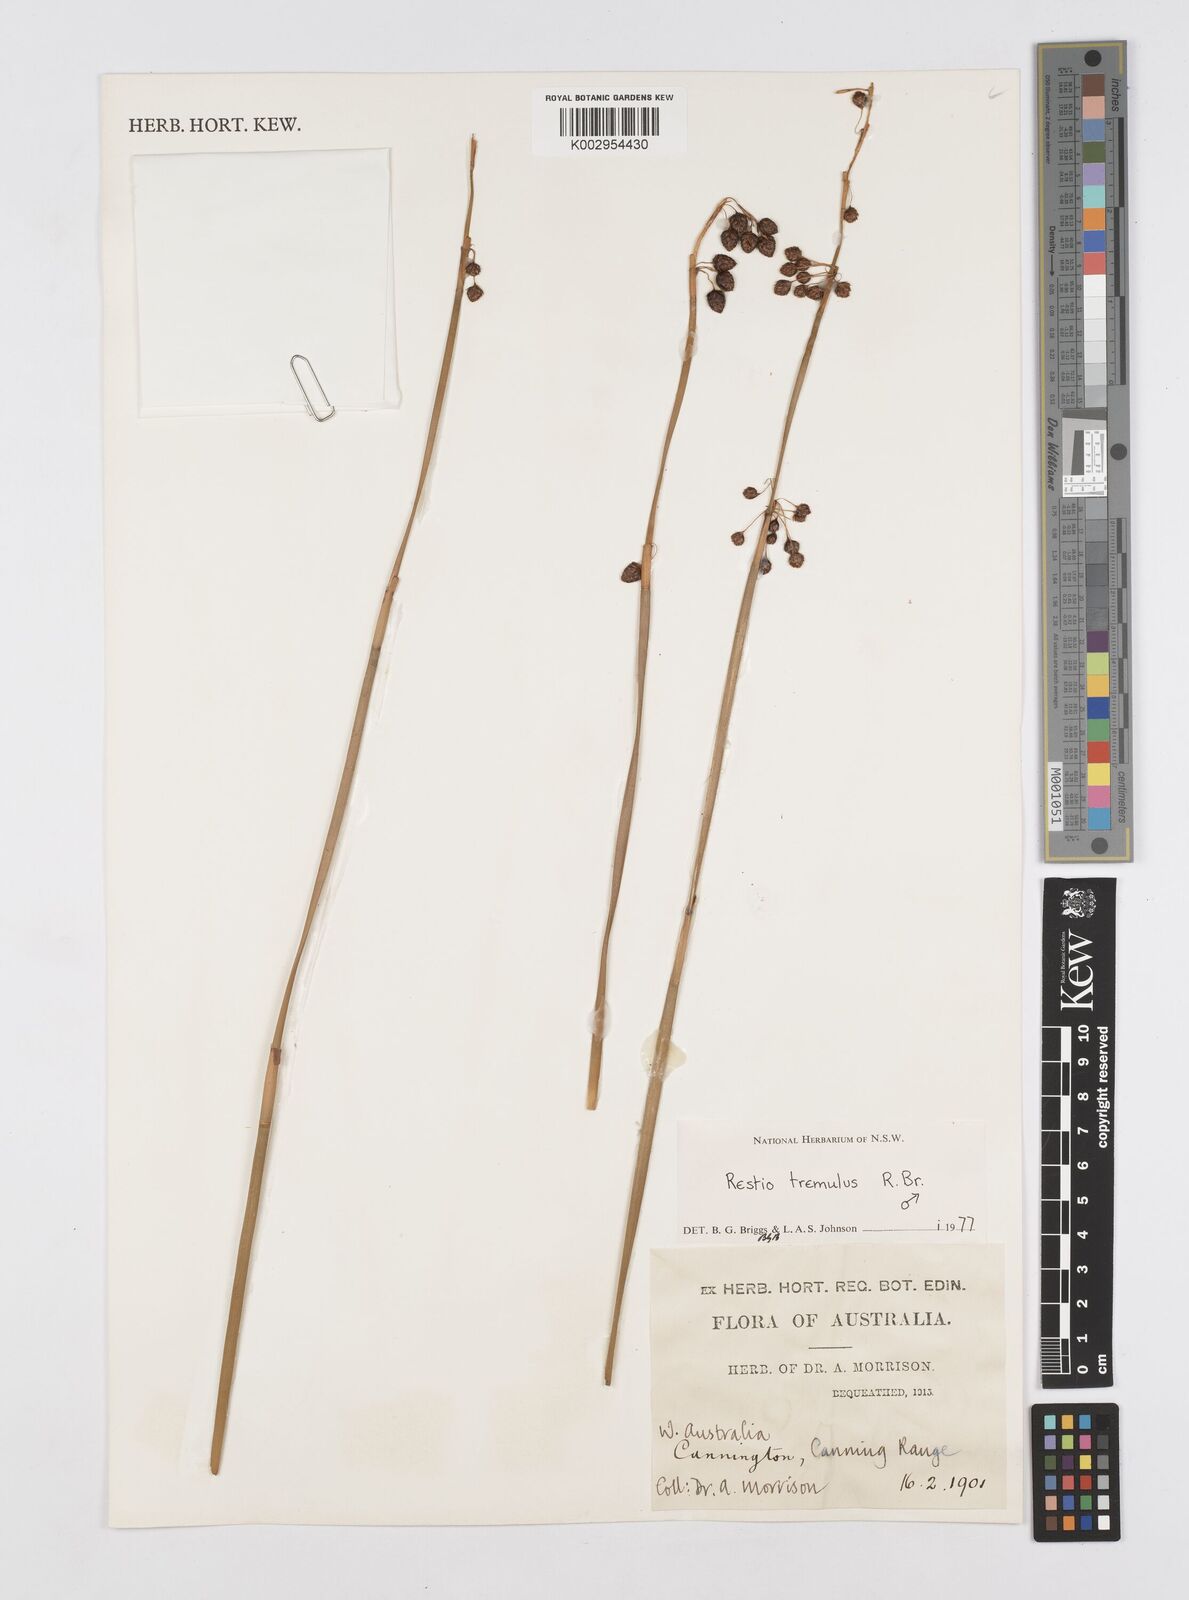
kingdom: Plantae
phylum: Tracheophyta
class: Liliopsida
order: Poales
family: Restionaceae
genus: Tremulina
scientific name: Tremulina tremula
